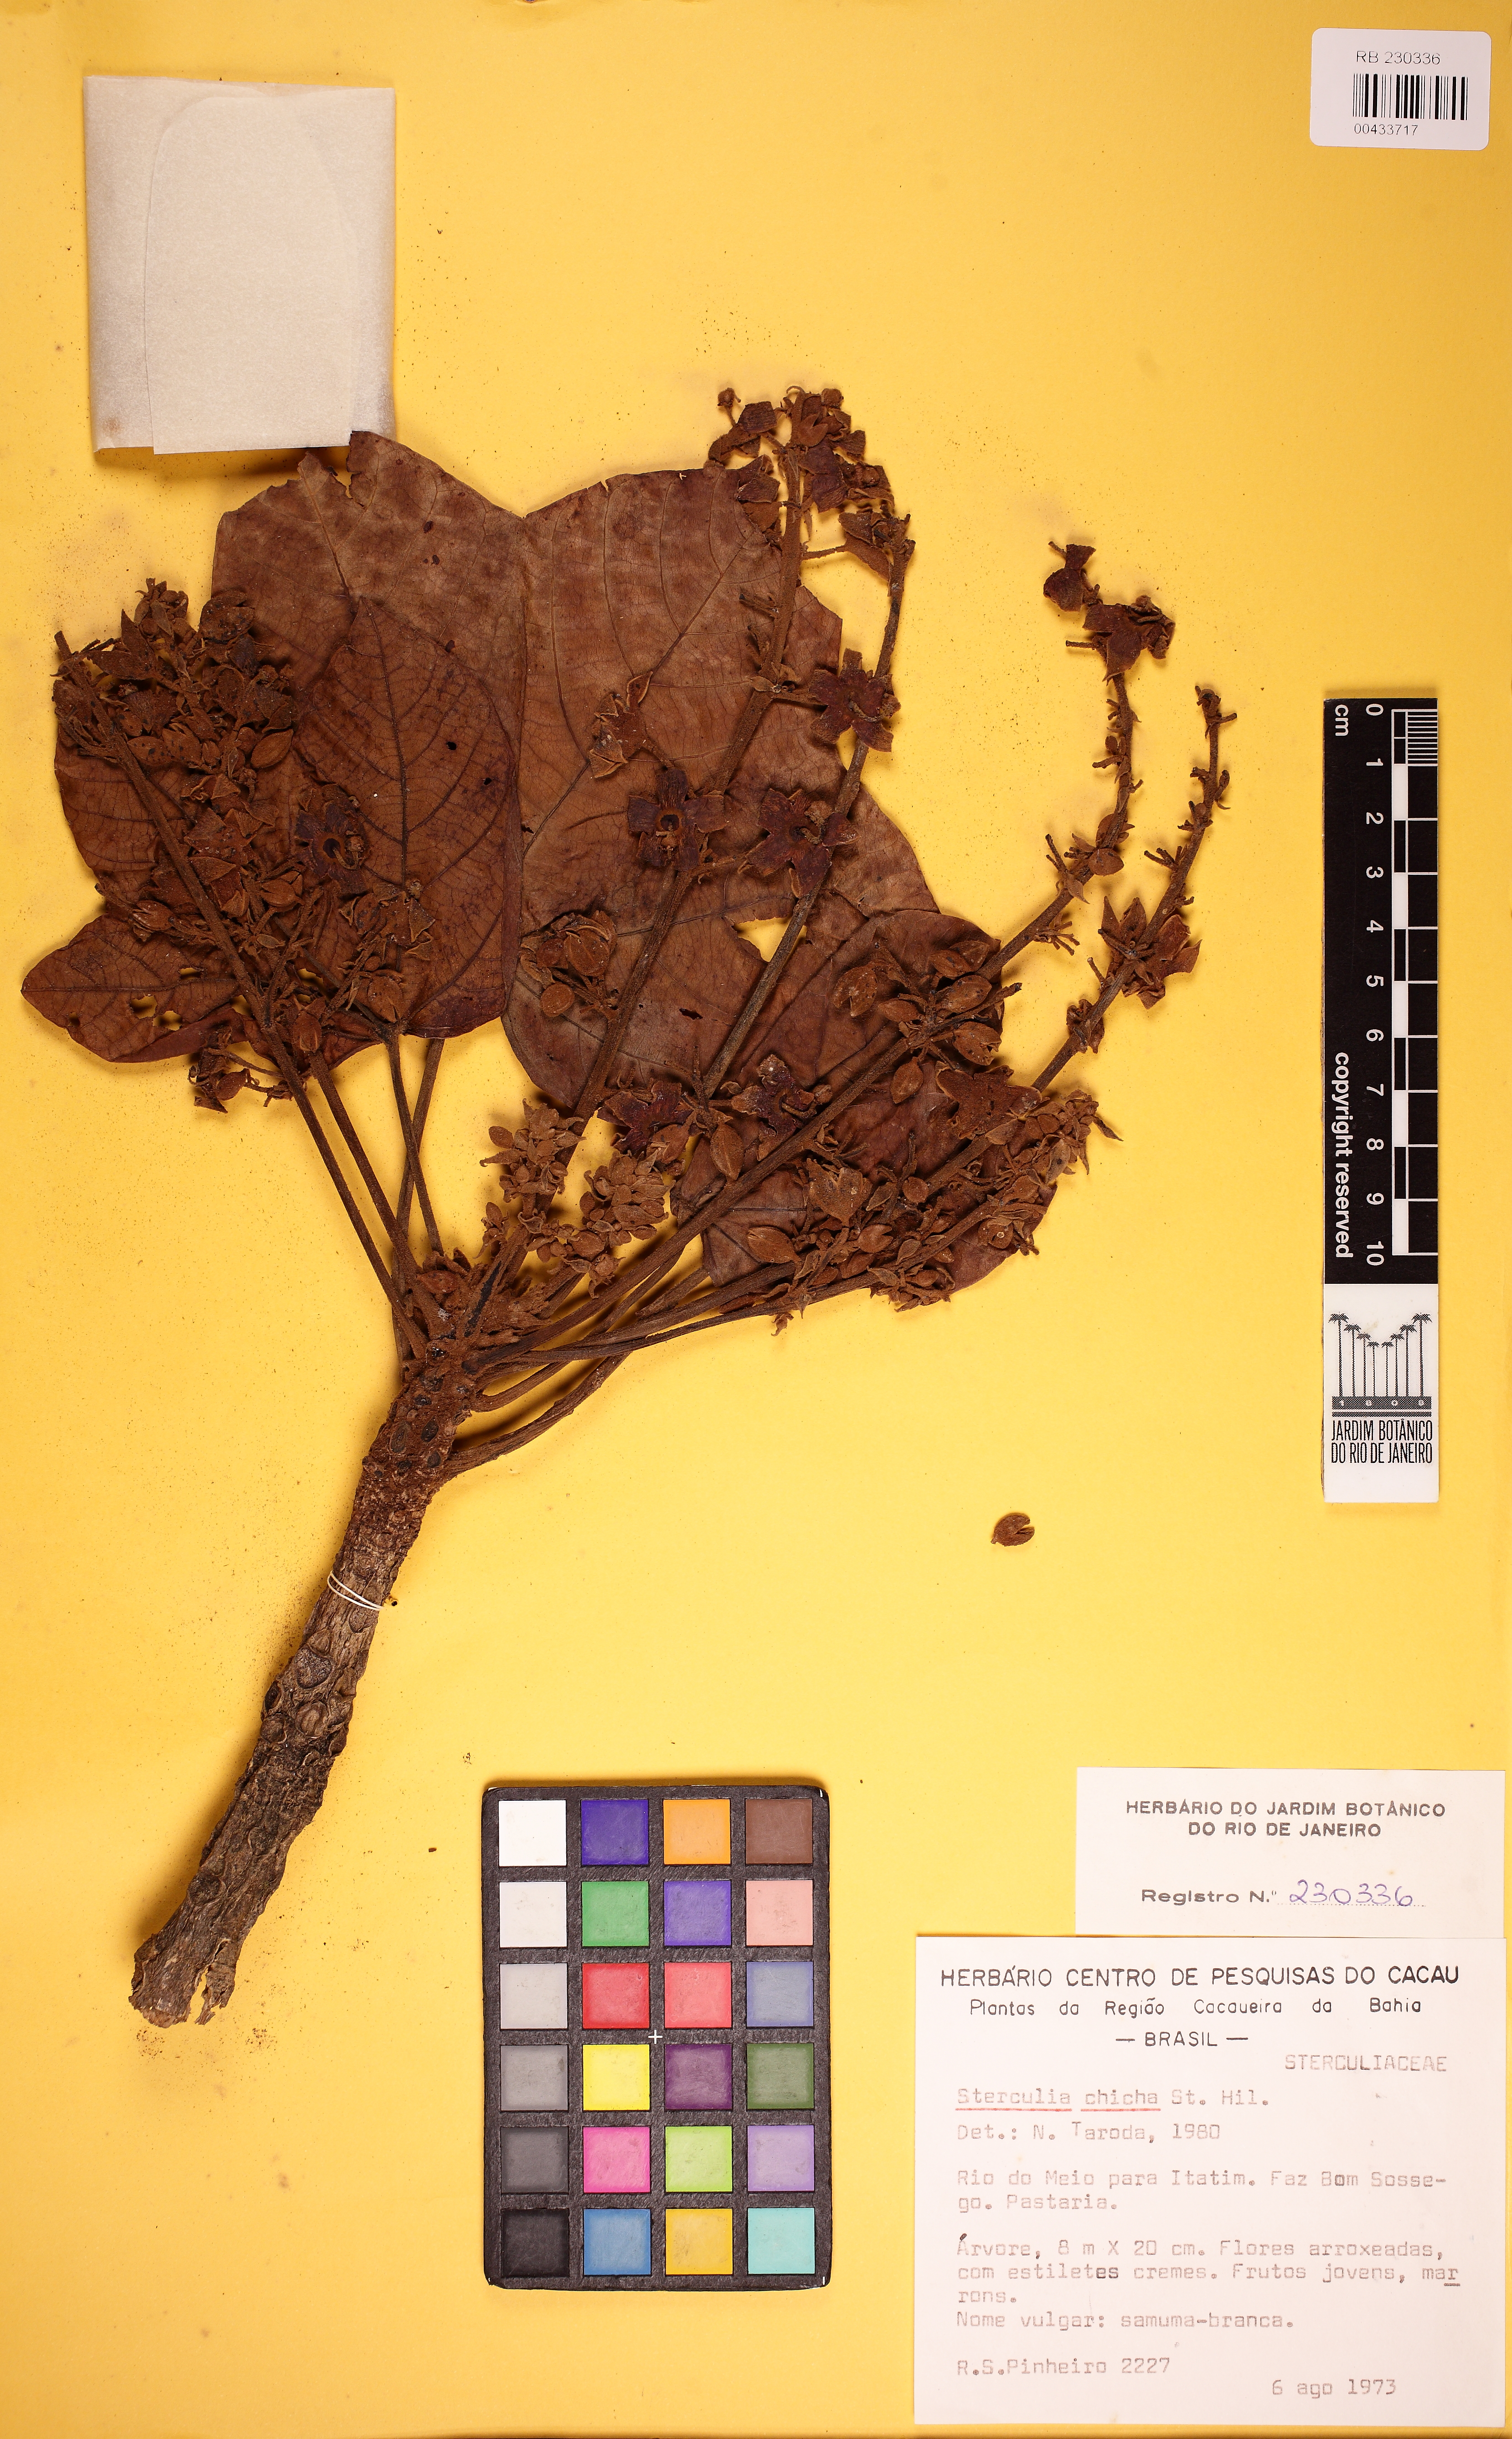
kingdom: Plantae
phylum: Tracheophyta
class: Magnoliopsida
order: Malvales
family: Malvaceae
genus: Sterculia
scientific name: Sterculia apetala
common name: Panama tree
